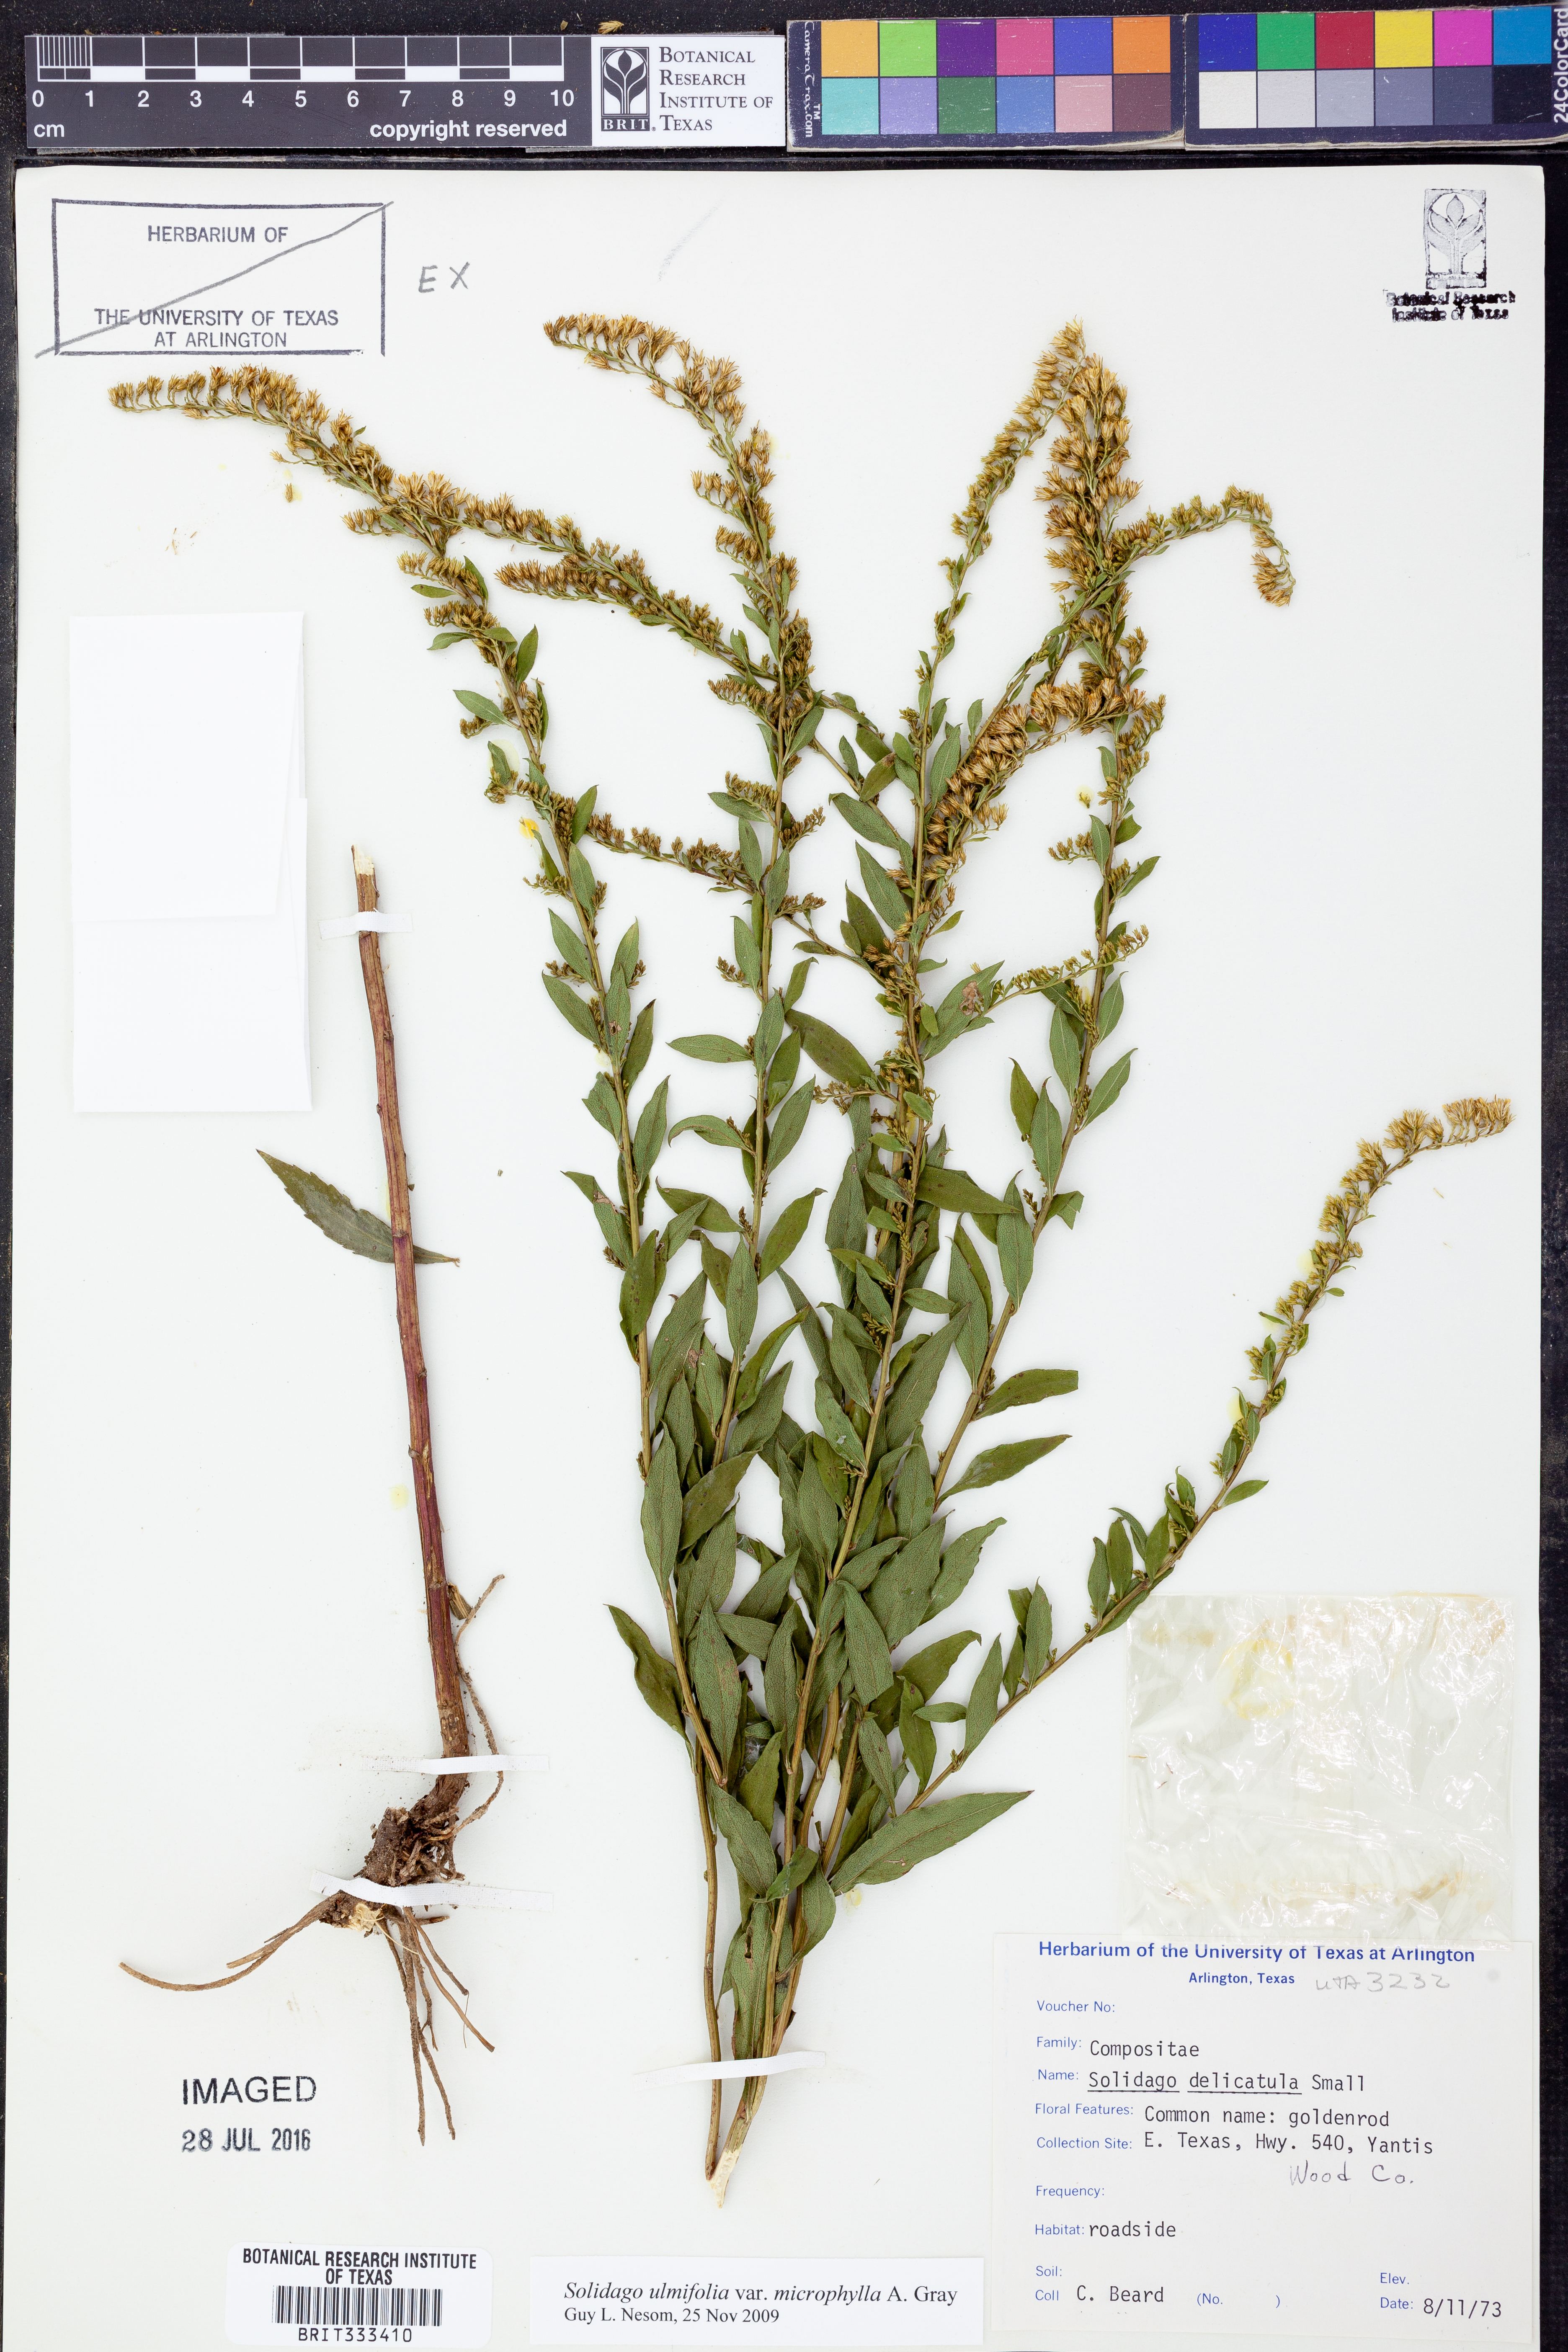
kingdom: Plantae
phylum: Tracheophyta
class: Magnoliopsida
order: Asterales
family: Asteraceae
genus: Solidago
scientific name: Solidago delicatula
